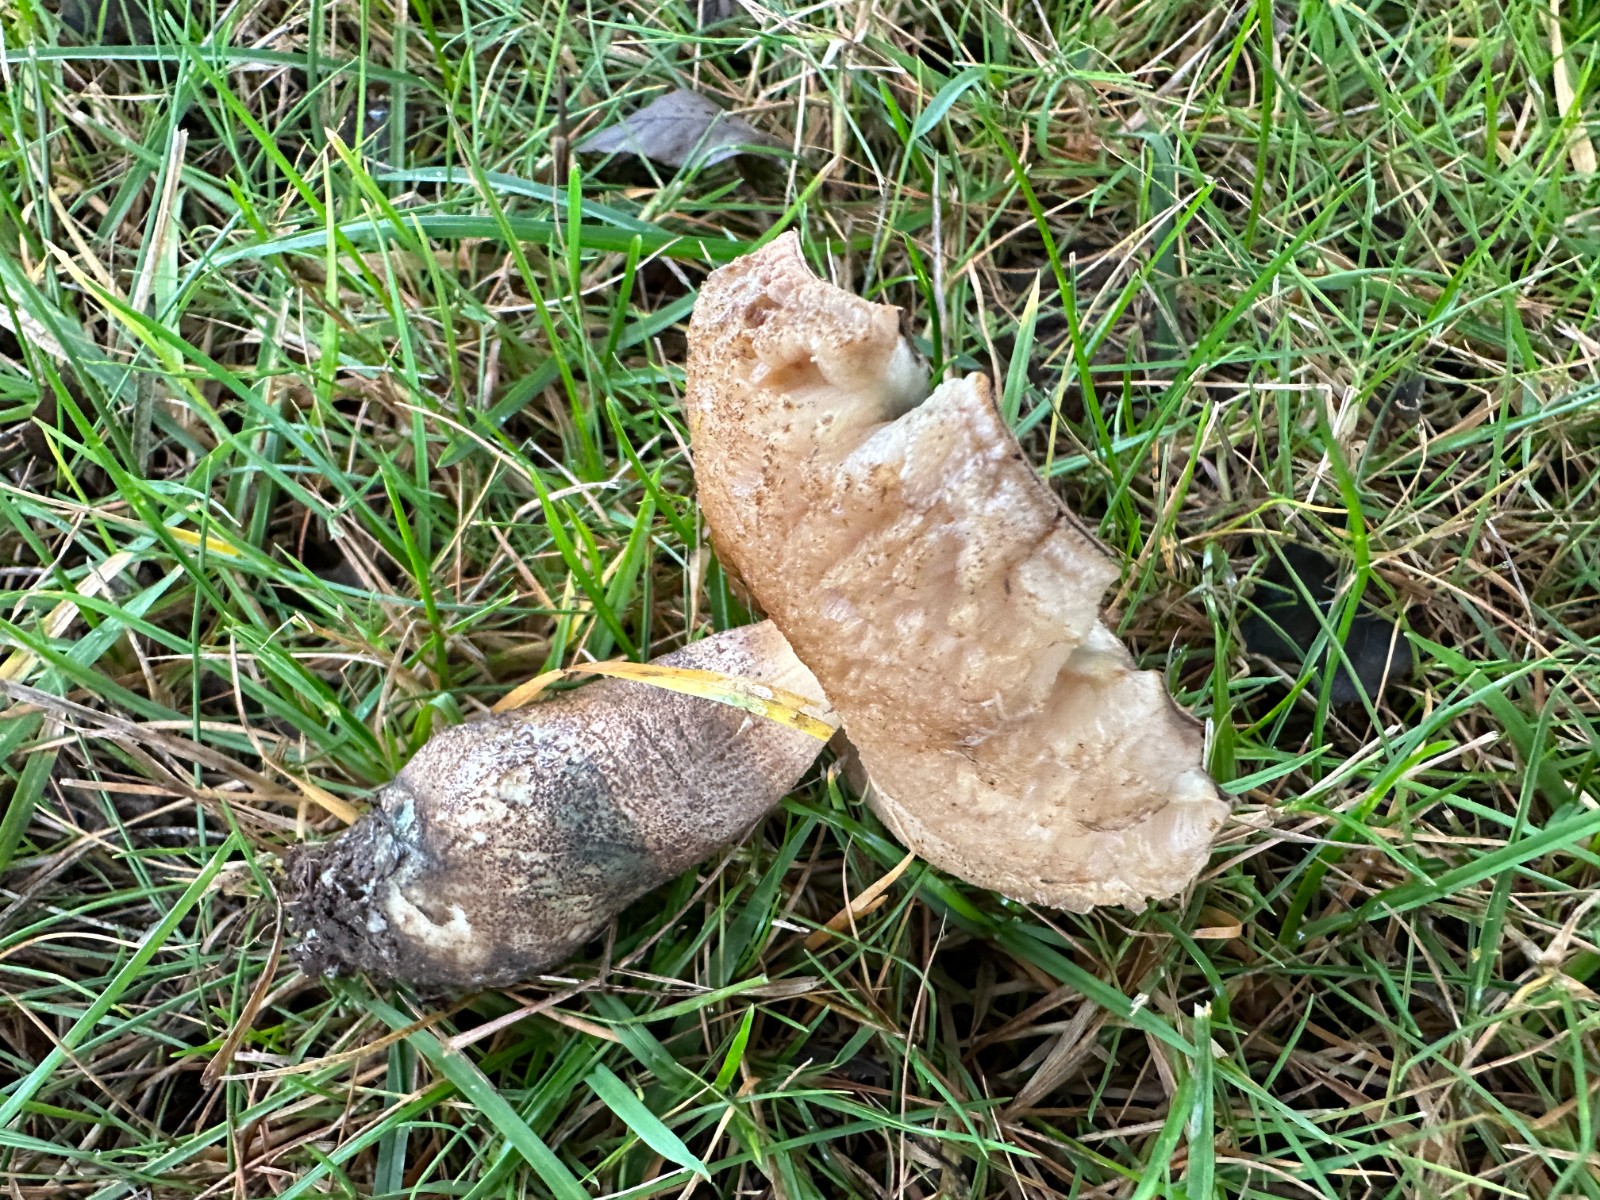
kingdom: Fungi
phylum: Basidiomycota
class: Agaricomycetes
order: Boletales
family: Boletaceae
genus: Leccinum
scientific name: Leccinum duriusculum
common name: poppel-skælrørhat
